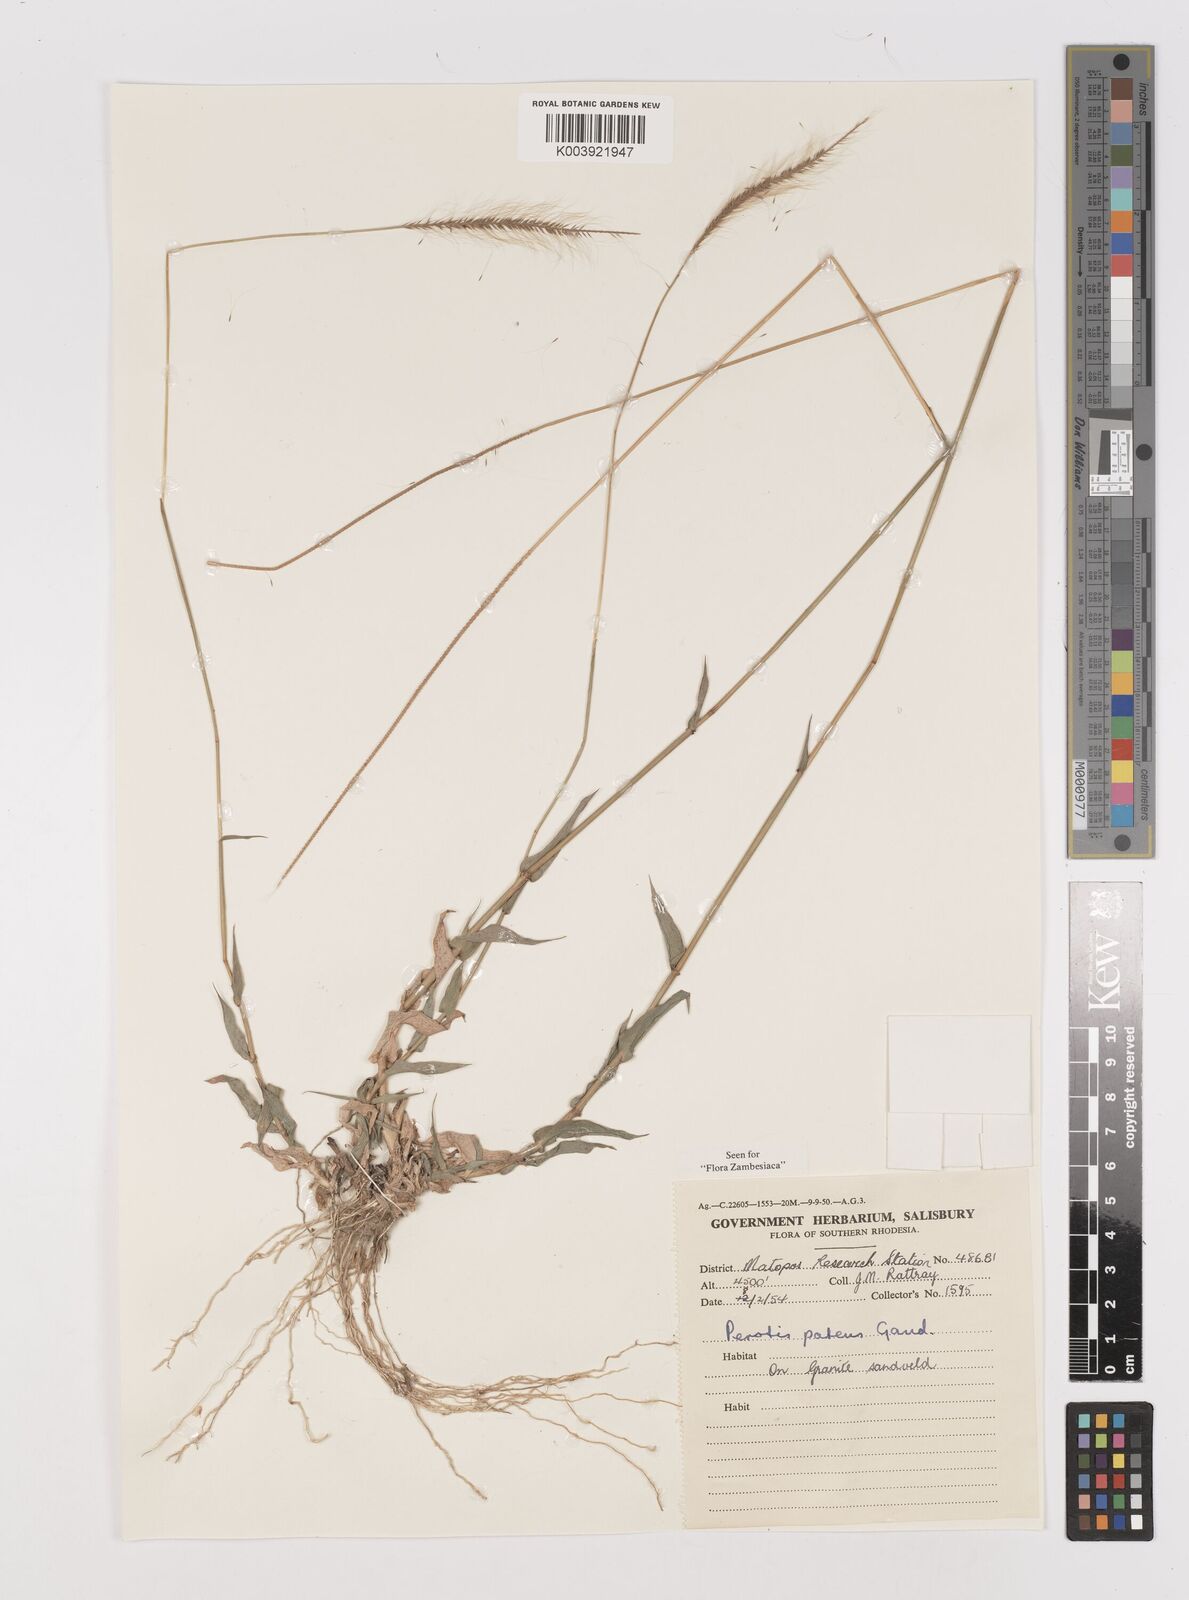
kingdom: Plantae
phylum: Tracheophyta
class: Liliopsida
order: Poales
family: Poaceae
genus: Perotis
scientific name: Perotis patens
